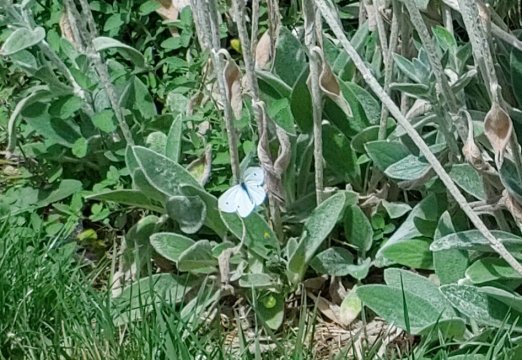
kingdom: Animalia
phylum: Arthropoda
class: Insecta
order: Lepidoptera
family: Pieridae
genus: Pieris
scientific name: Pieris rapae
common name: Cabbage White
